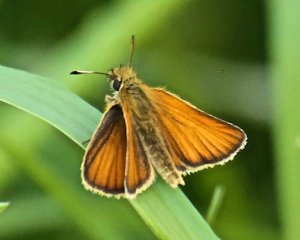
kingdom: Animalia
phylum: Arthropoda
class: Insecta
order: Lepidoptera
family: Hesperiidae
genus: Thymelicus
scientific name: Thymelicus lineola
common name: European Skipper
